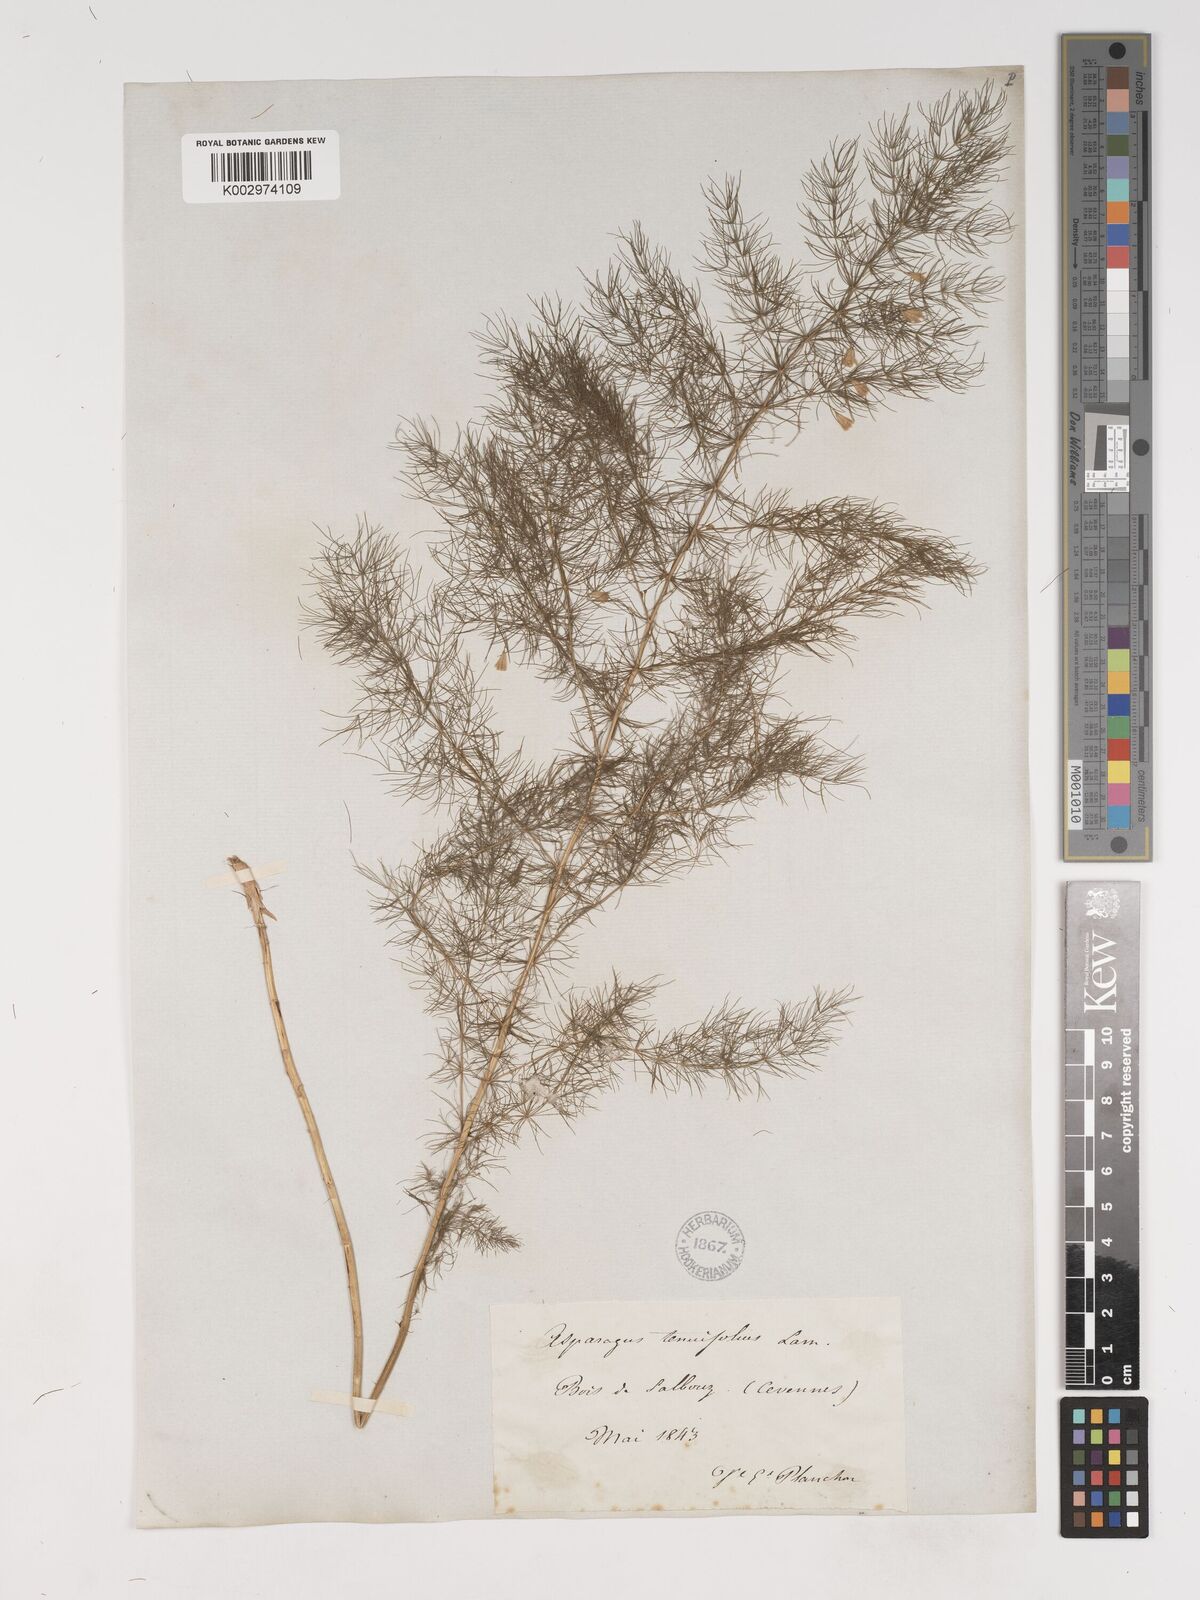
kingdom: Plantae
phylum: Tracheophyta
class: Liliopsida
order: Asparagales
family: Asparagaceae
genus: Asparagus
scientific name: Asparagus tenuifolius
